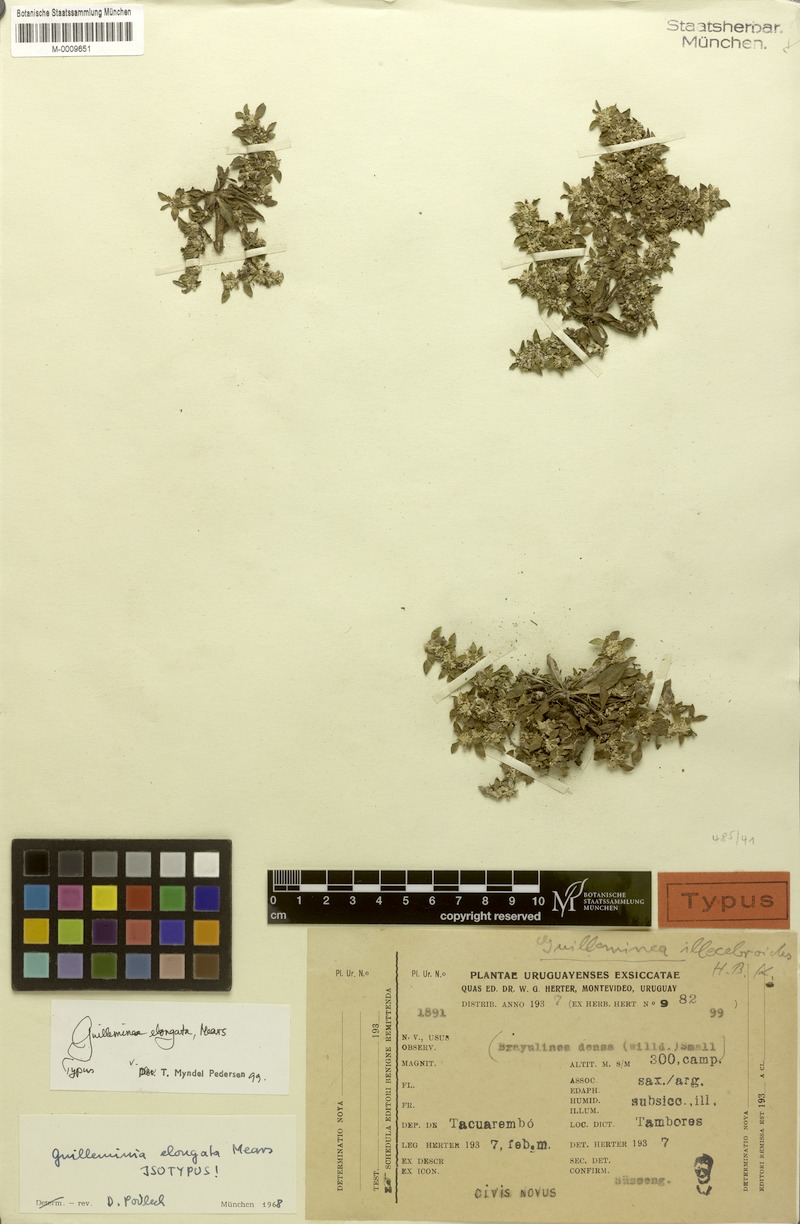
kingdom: Plantae
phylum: Tracheophyta
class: Magnoliopsida
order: Caryophyllales
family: Amaranthaceae
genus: Guilleminea
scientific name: Guilleminea elongata
